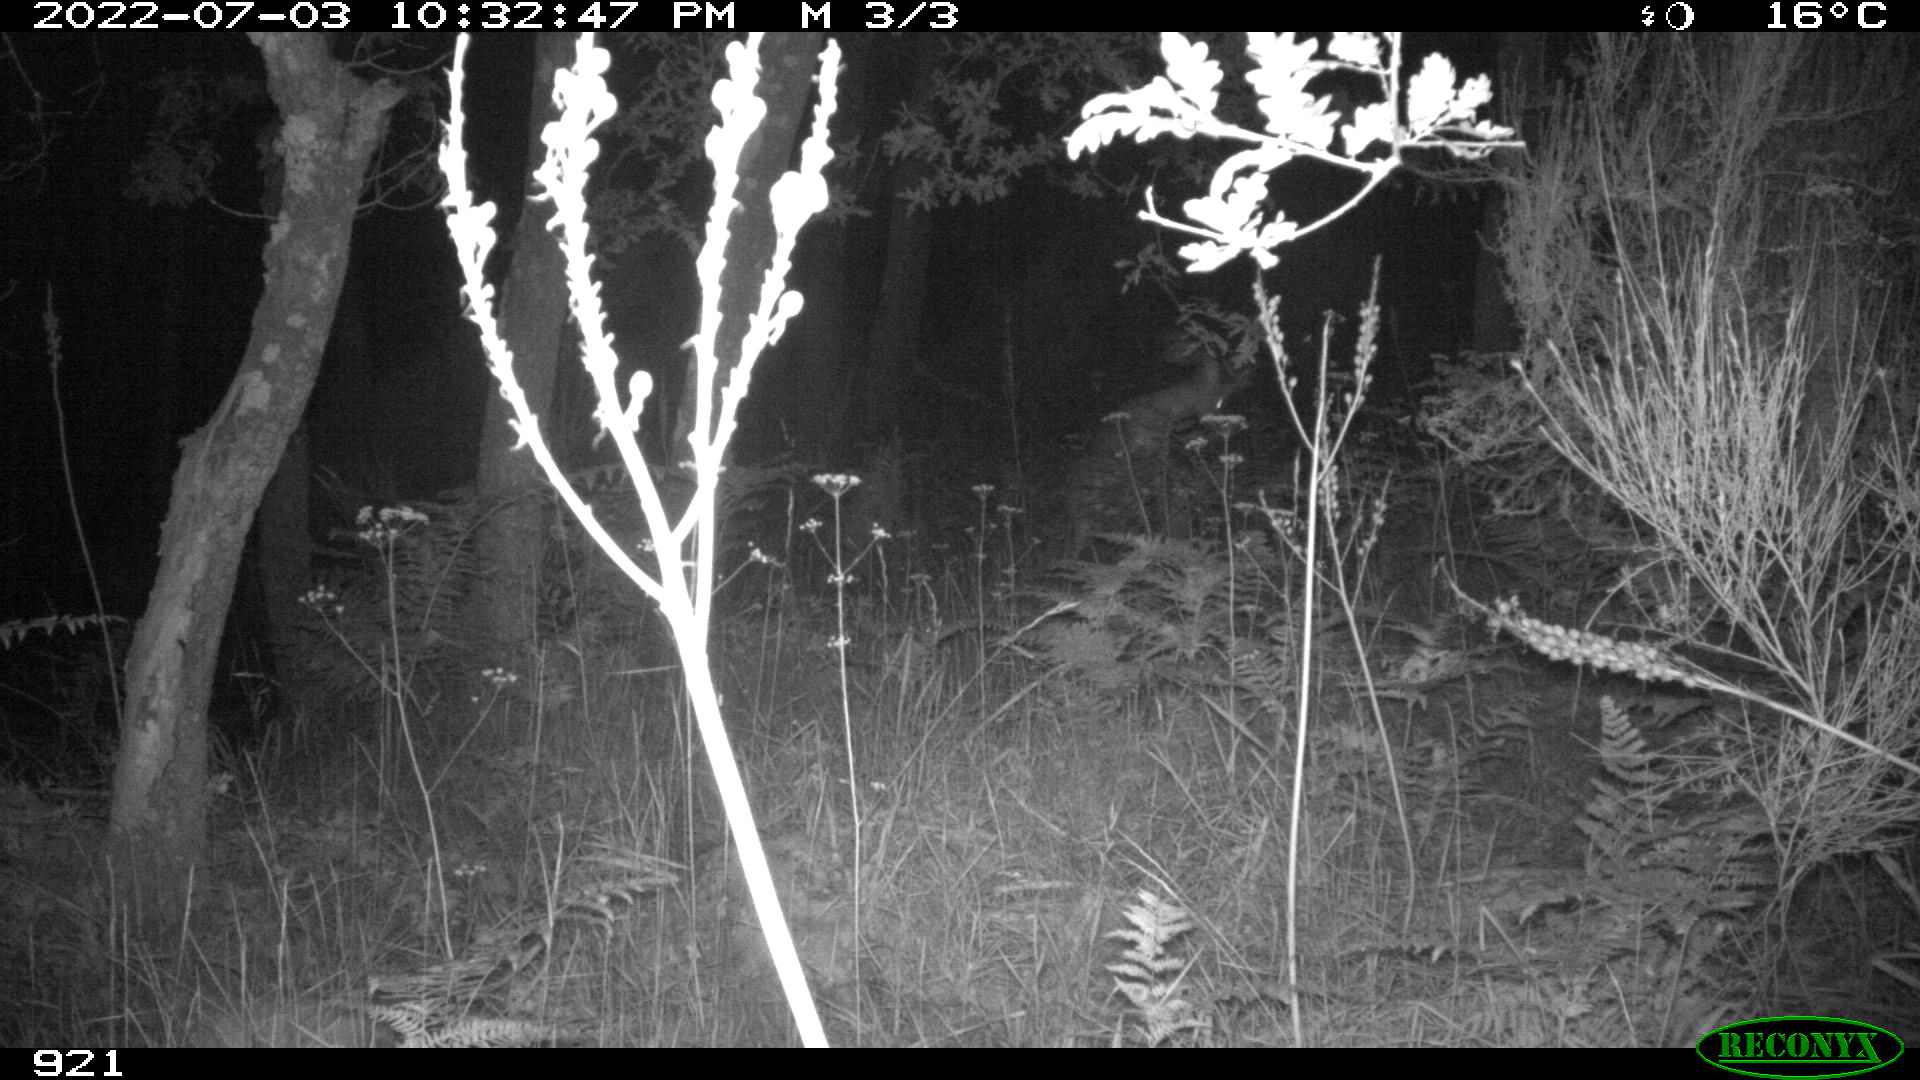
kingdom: Animalia
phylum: Chordata
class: Mammalia
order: Artiodactyla
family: Cervidae
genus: Capreolus
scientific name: Capreolus capreolus
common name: Western roe deer
